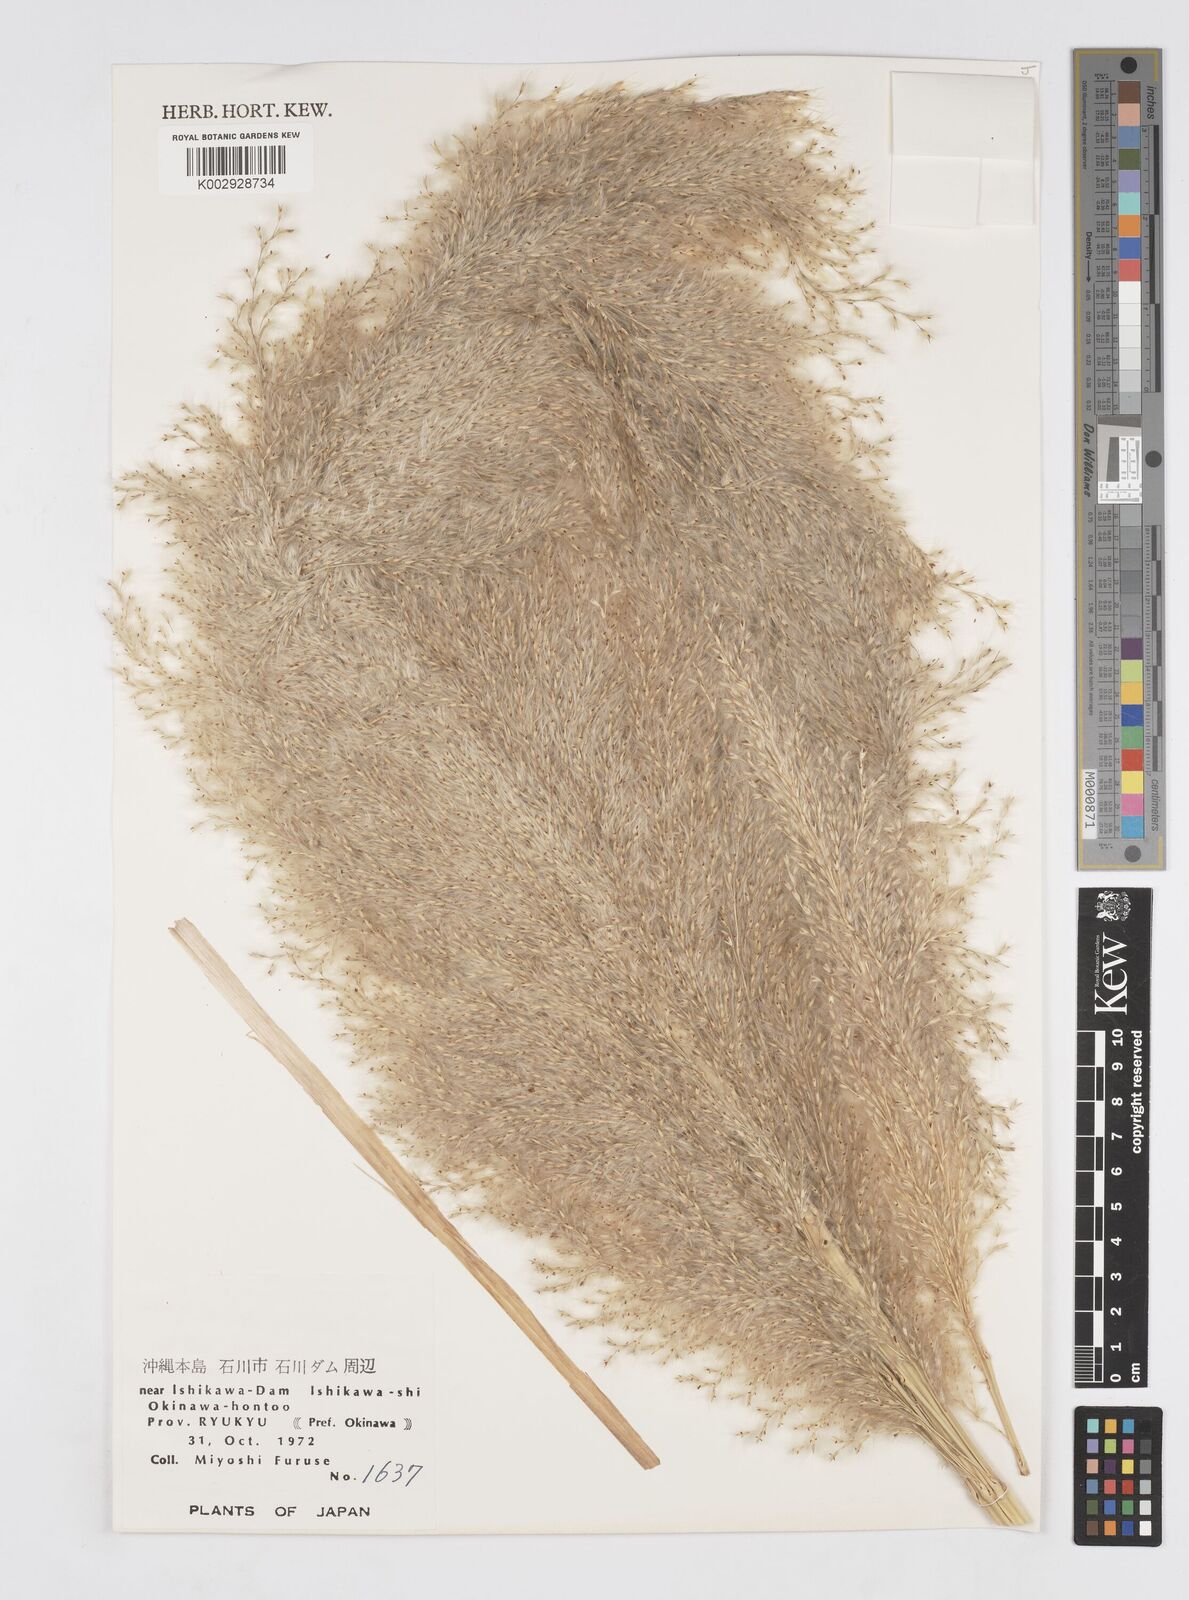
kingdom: Plantae
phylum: Tracheophyta
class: Liliopsida
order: Poales
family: Poaceae
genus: Tripidium
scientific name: Tripidium arundinaceum
